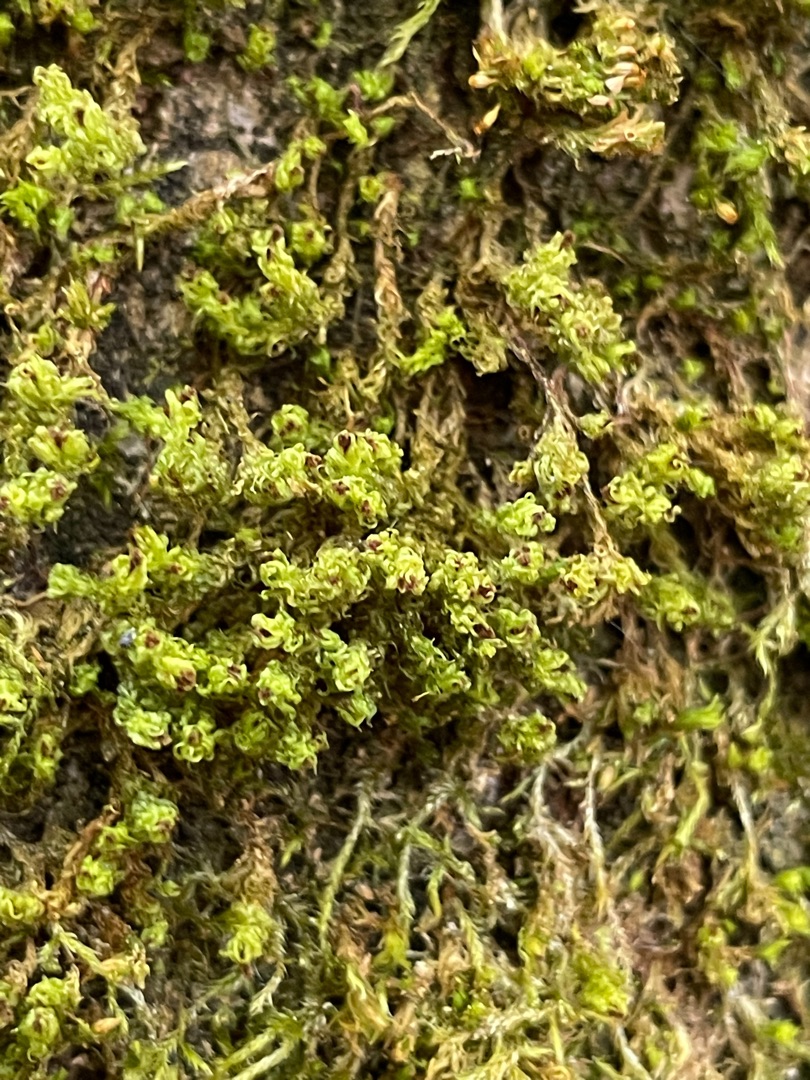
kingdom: Plantae
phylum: Bryophyta
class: Bryopsida
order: Orthotrichales
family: Orthotrichaceae
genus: Plenogemma
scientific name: Plenogemma phyllantha
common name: Stor låddenhætte
